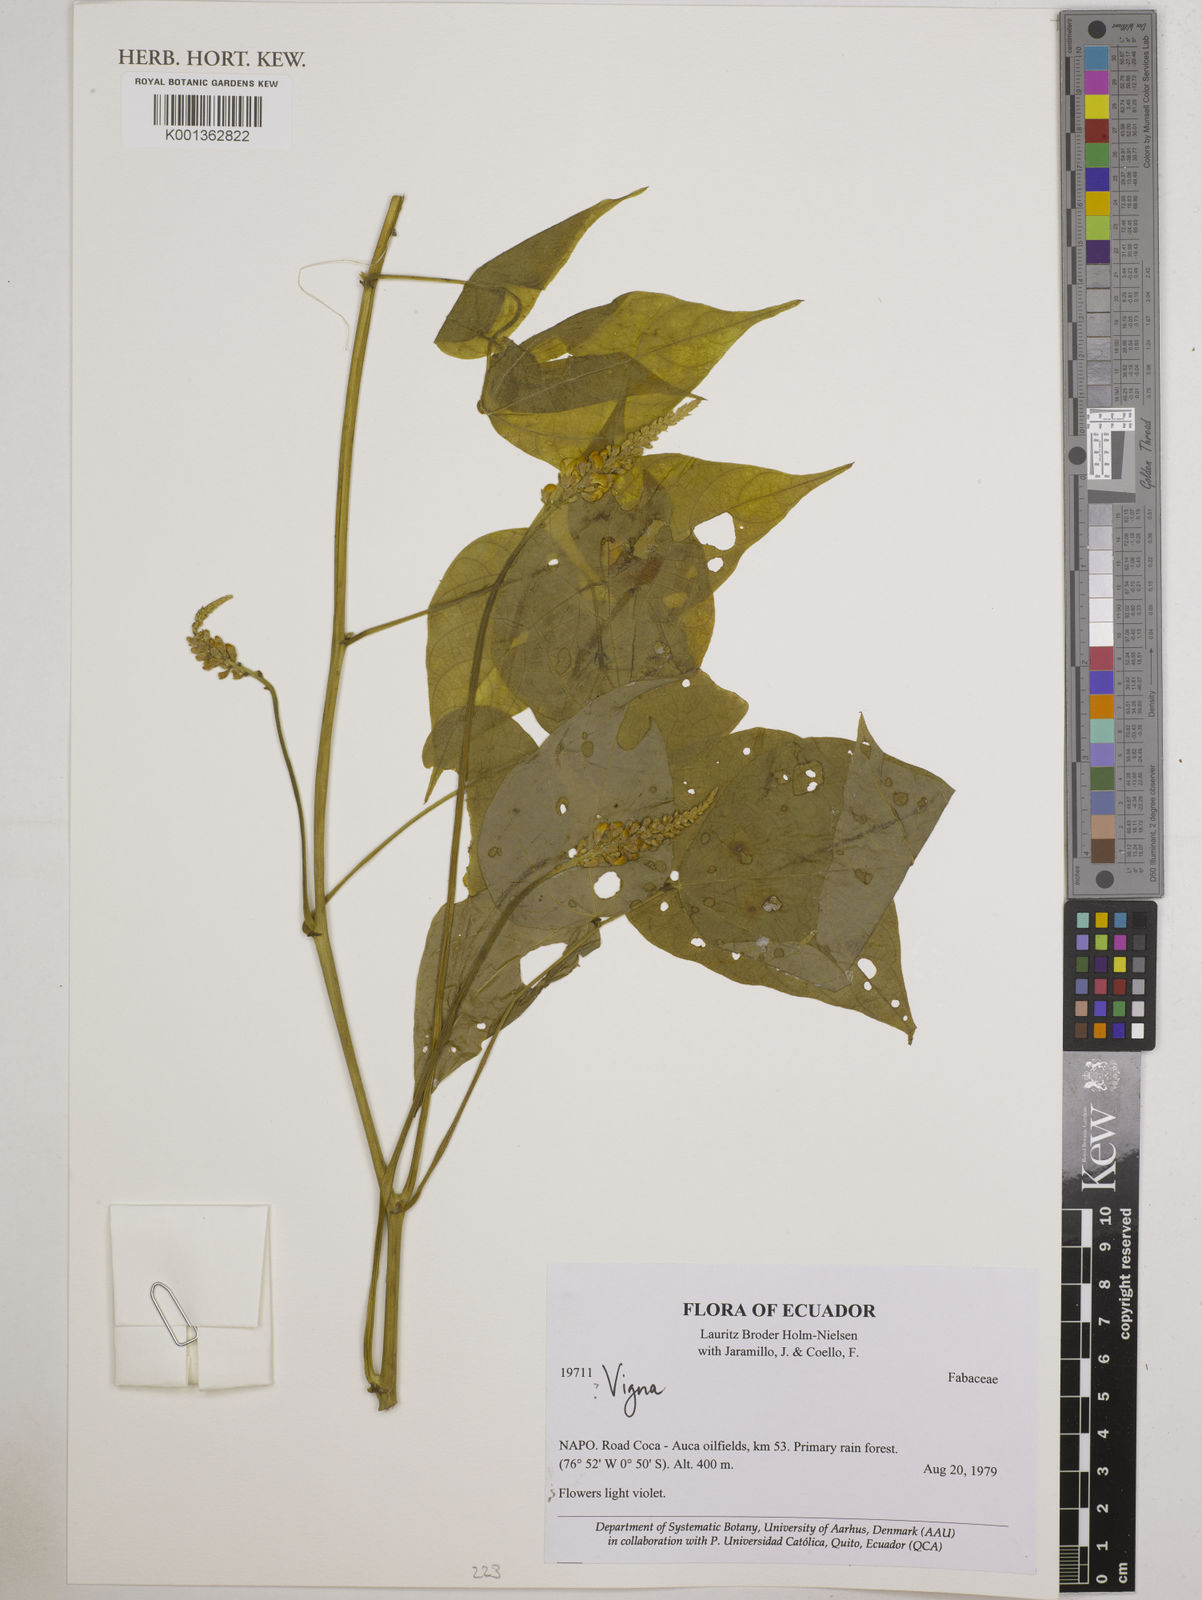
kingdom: Plantae
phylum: Tracheophyta
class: Magnoliopsida
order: Fabales
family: Fabaceae
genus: Vigna
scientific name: Vigna
